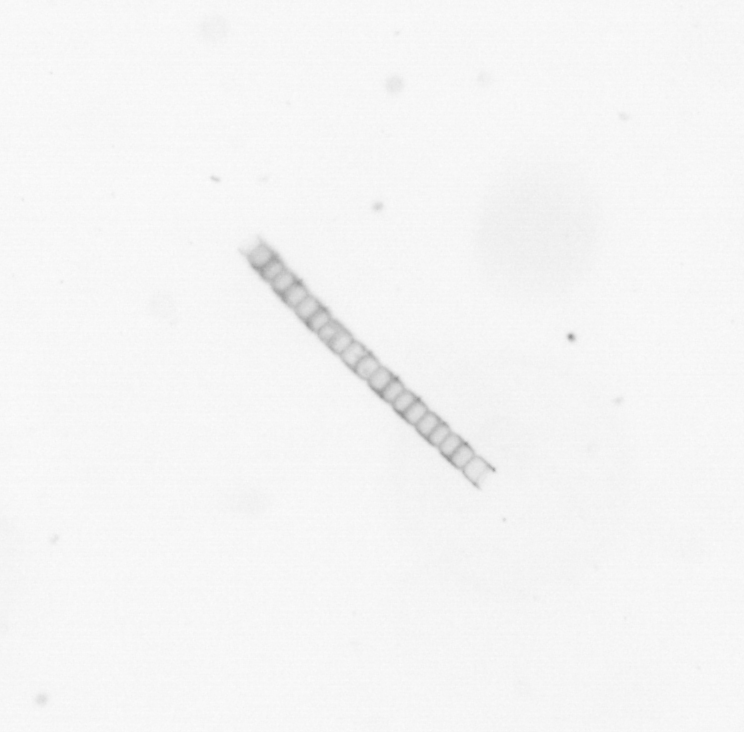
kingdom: Chromista
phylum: Ochrophyta
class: Bacillariophyceae
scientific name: Bacillariophyceae
